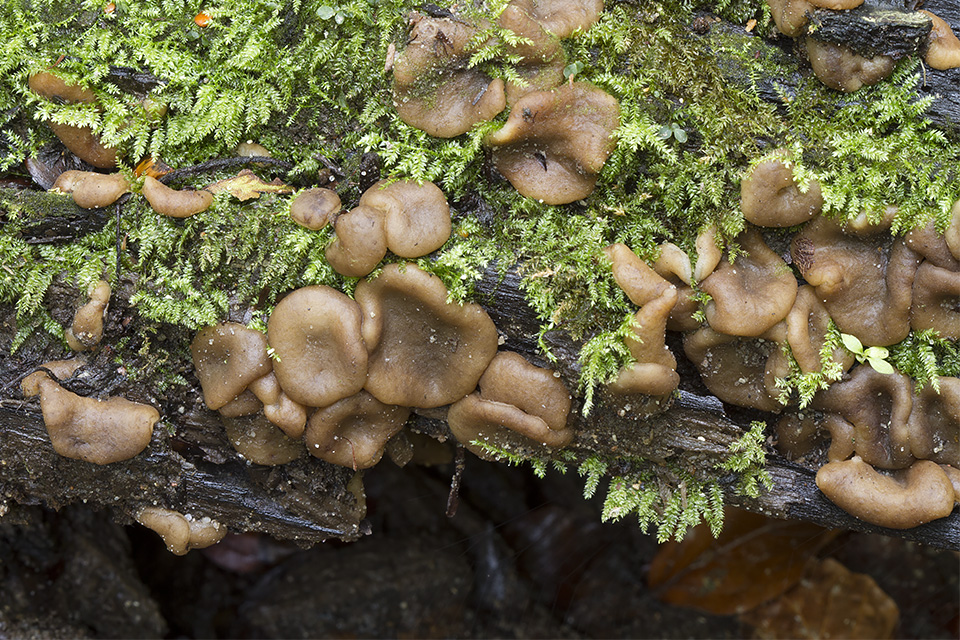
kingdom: Fungi
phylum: Ascomycota
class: Pezizomycetes
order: Pezizales
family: Pezizaceae
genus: Adelphella
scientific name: Adelphella babingtonii
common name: almindelig bækbæger
